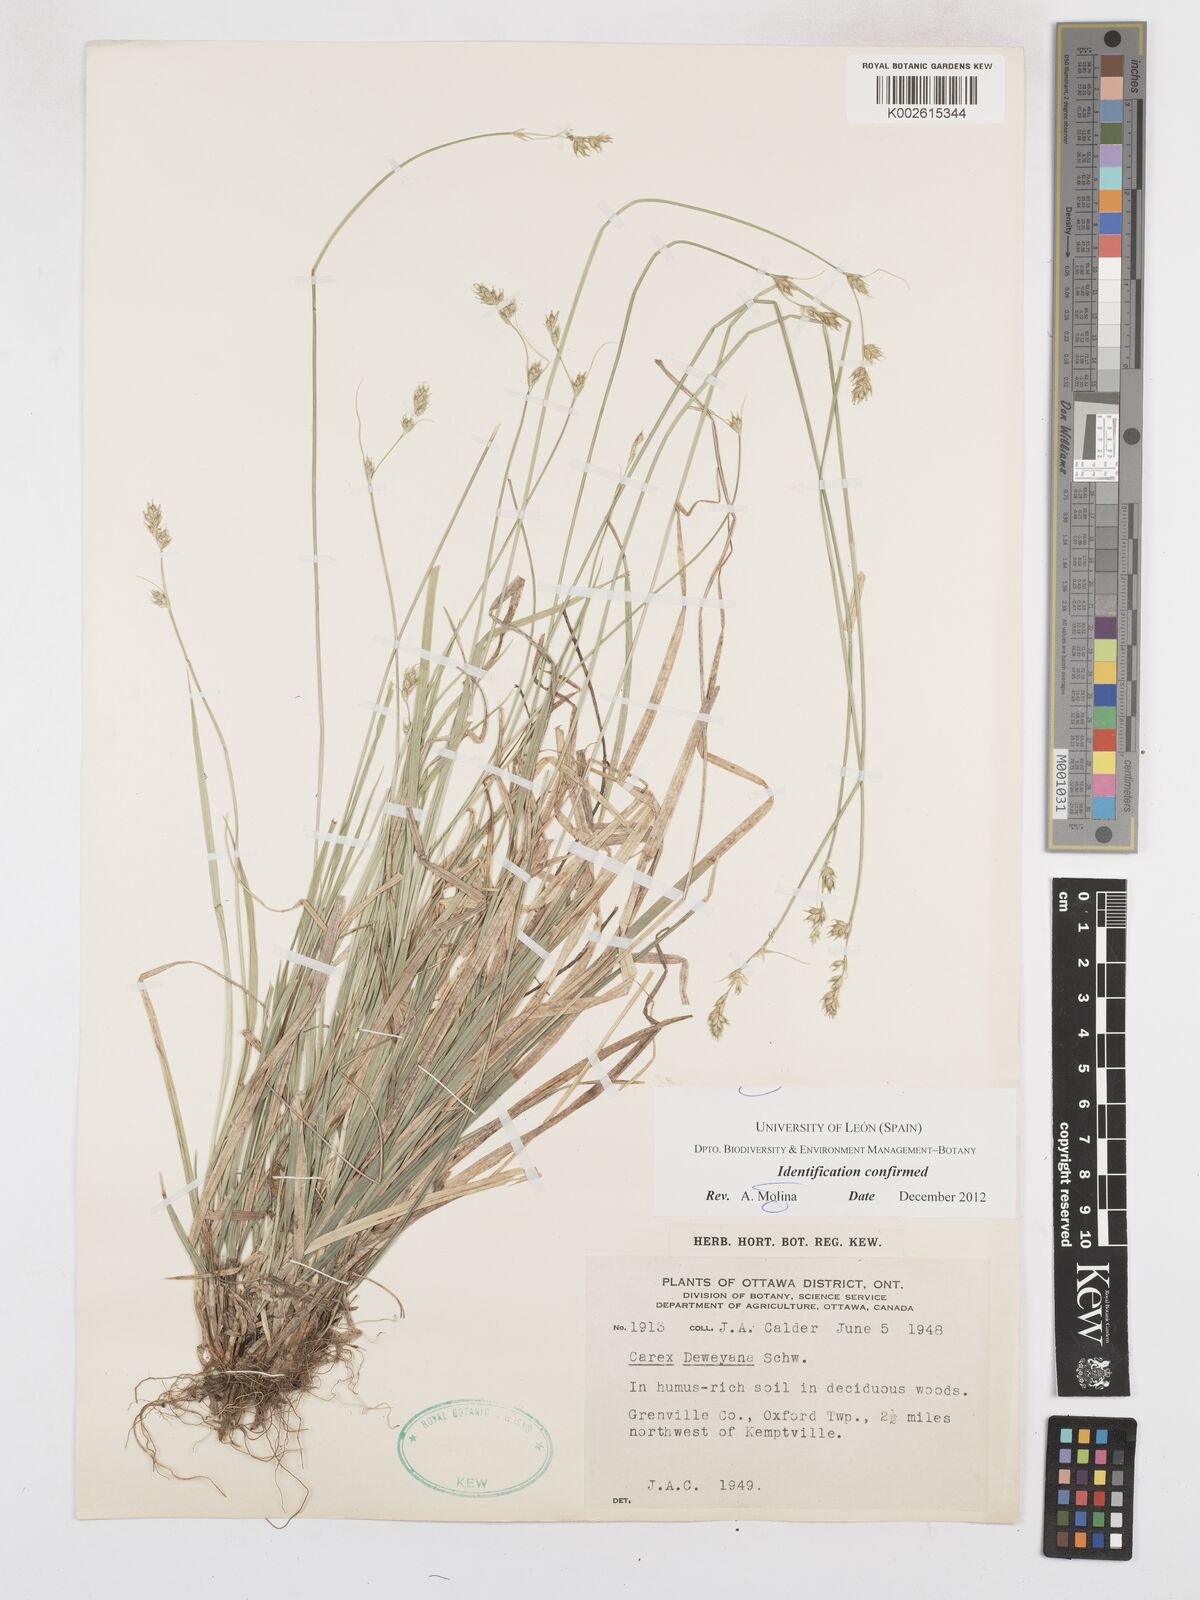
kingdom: Plantae
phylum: Tracheophyta
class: Liliopsida
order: Poales
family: Cyperaceae
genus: Carex
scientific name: Carex deweyana
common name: Dewey's sedge
